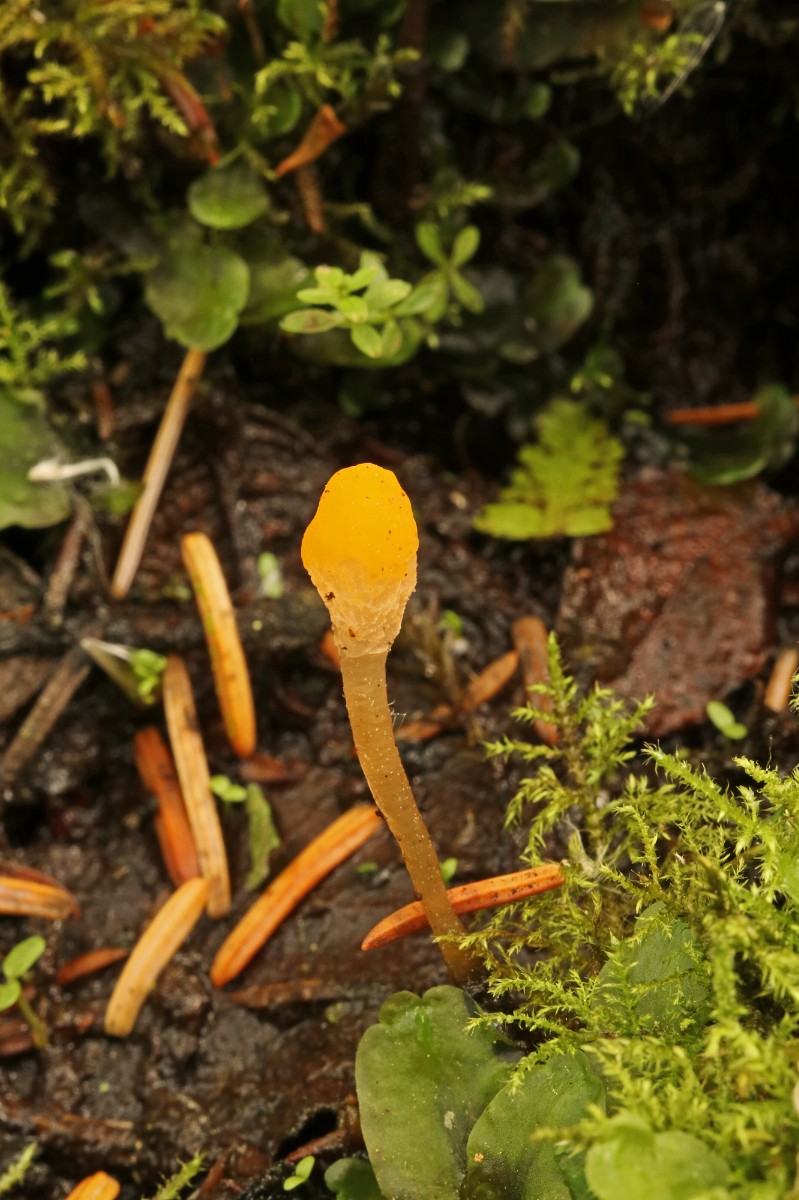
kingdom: Fungi
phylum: Ascomycota
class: Leotiomycetes
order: Helotiales
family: Cenangiaceae
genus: Mitrula
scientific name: Mitrula paludosa
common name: gul nøkketunge
